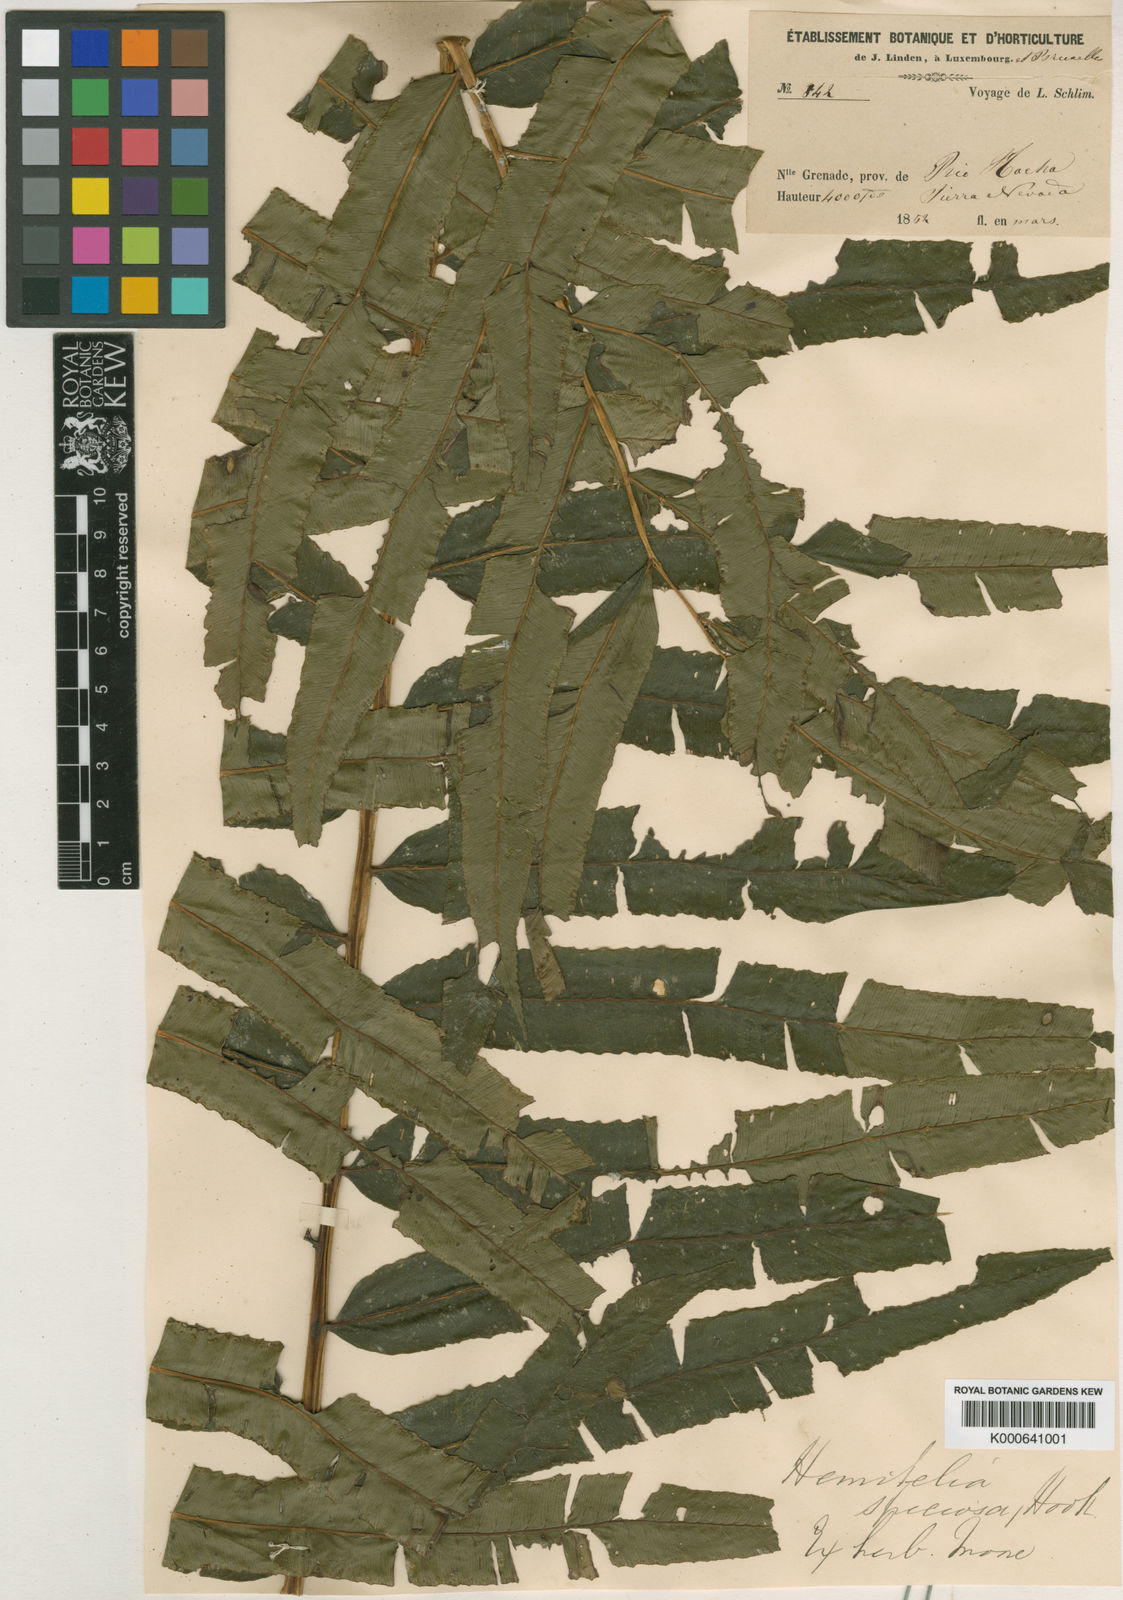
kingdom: Plantae
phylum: Tracheophyta
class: Polypodiopsida
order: Cyatheales
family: Cyatheaceae
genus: Cyathea
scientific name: Cyathea speciosa
